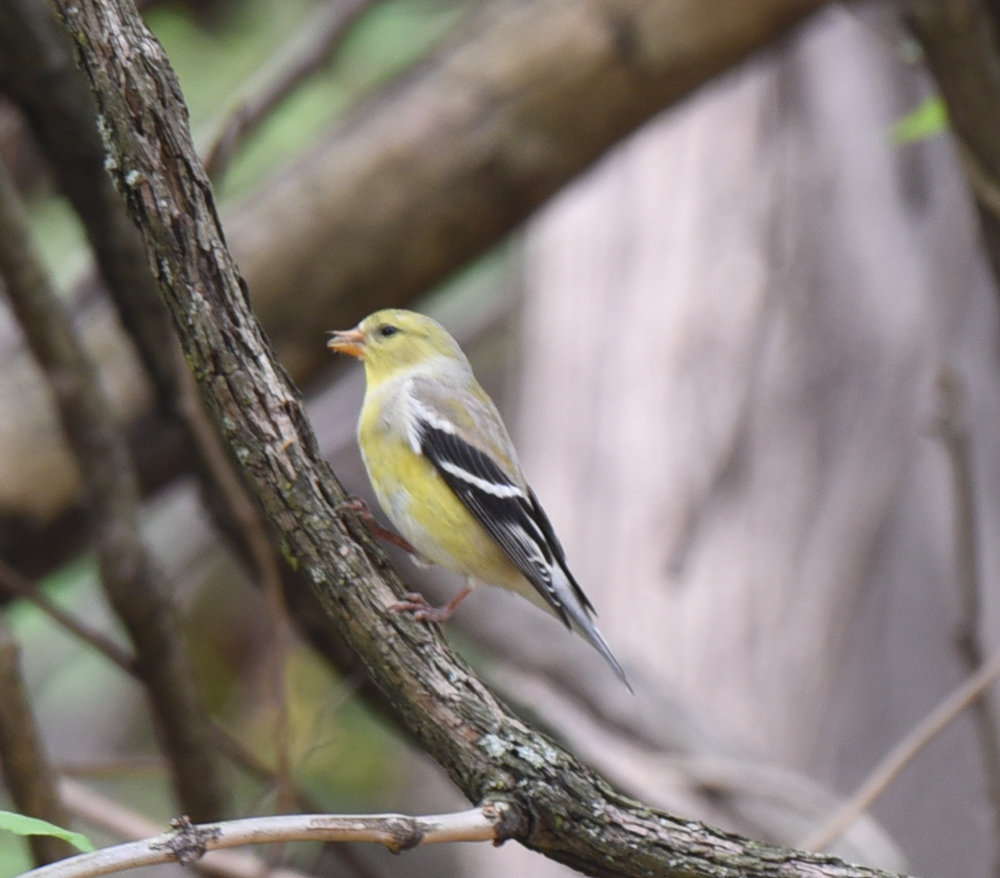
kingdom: Animalia
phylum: Chordata
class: Aves
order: Passeriformes
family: Fringillidae
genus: Spinus
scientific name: Spinus tristis
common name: American goldfinch
